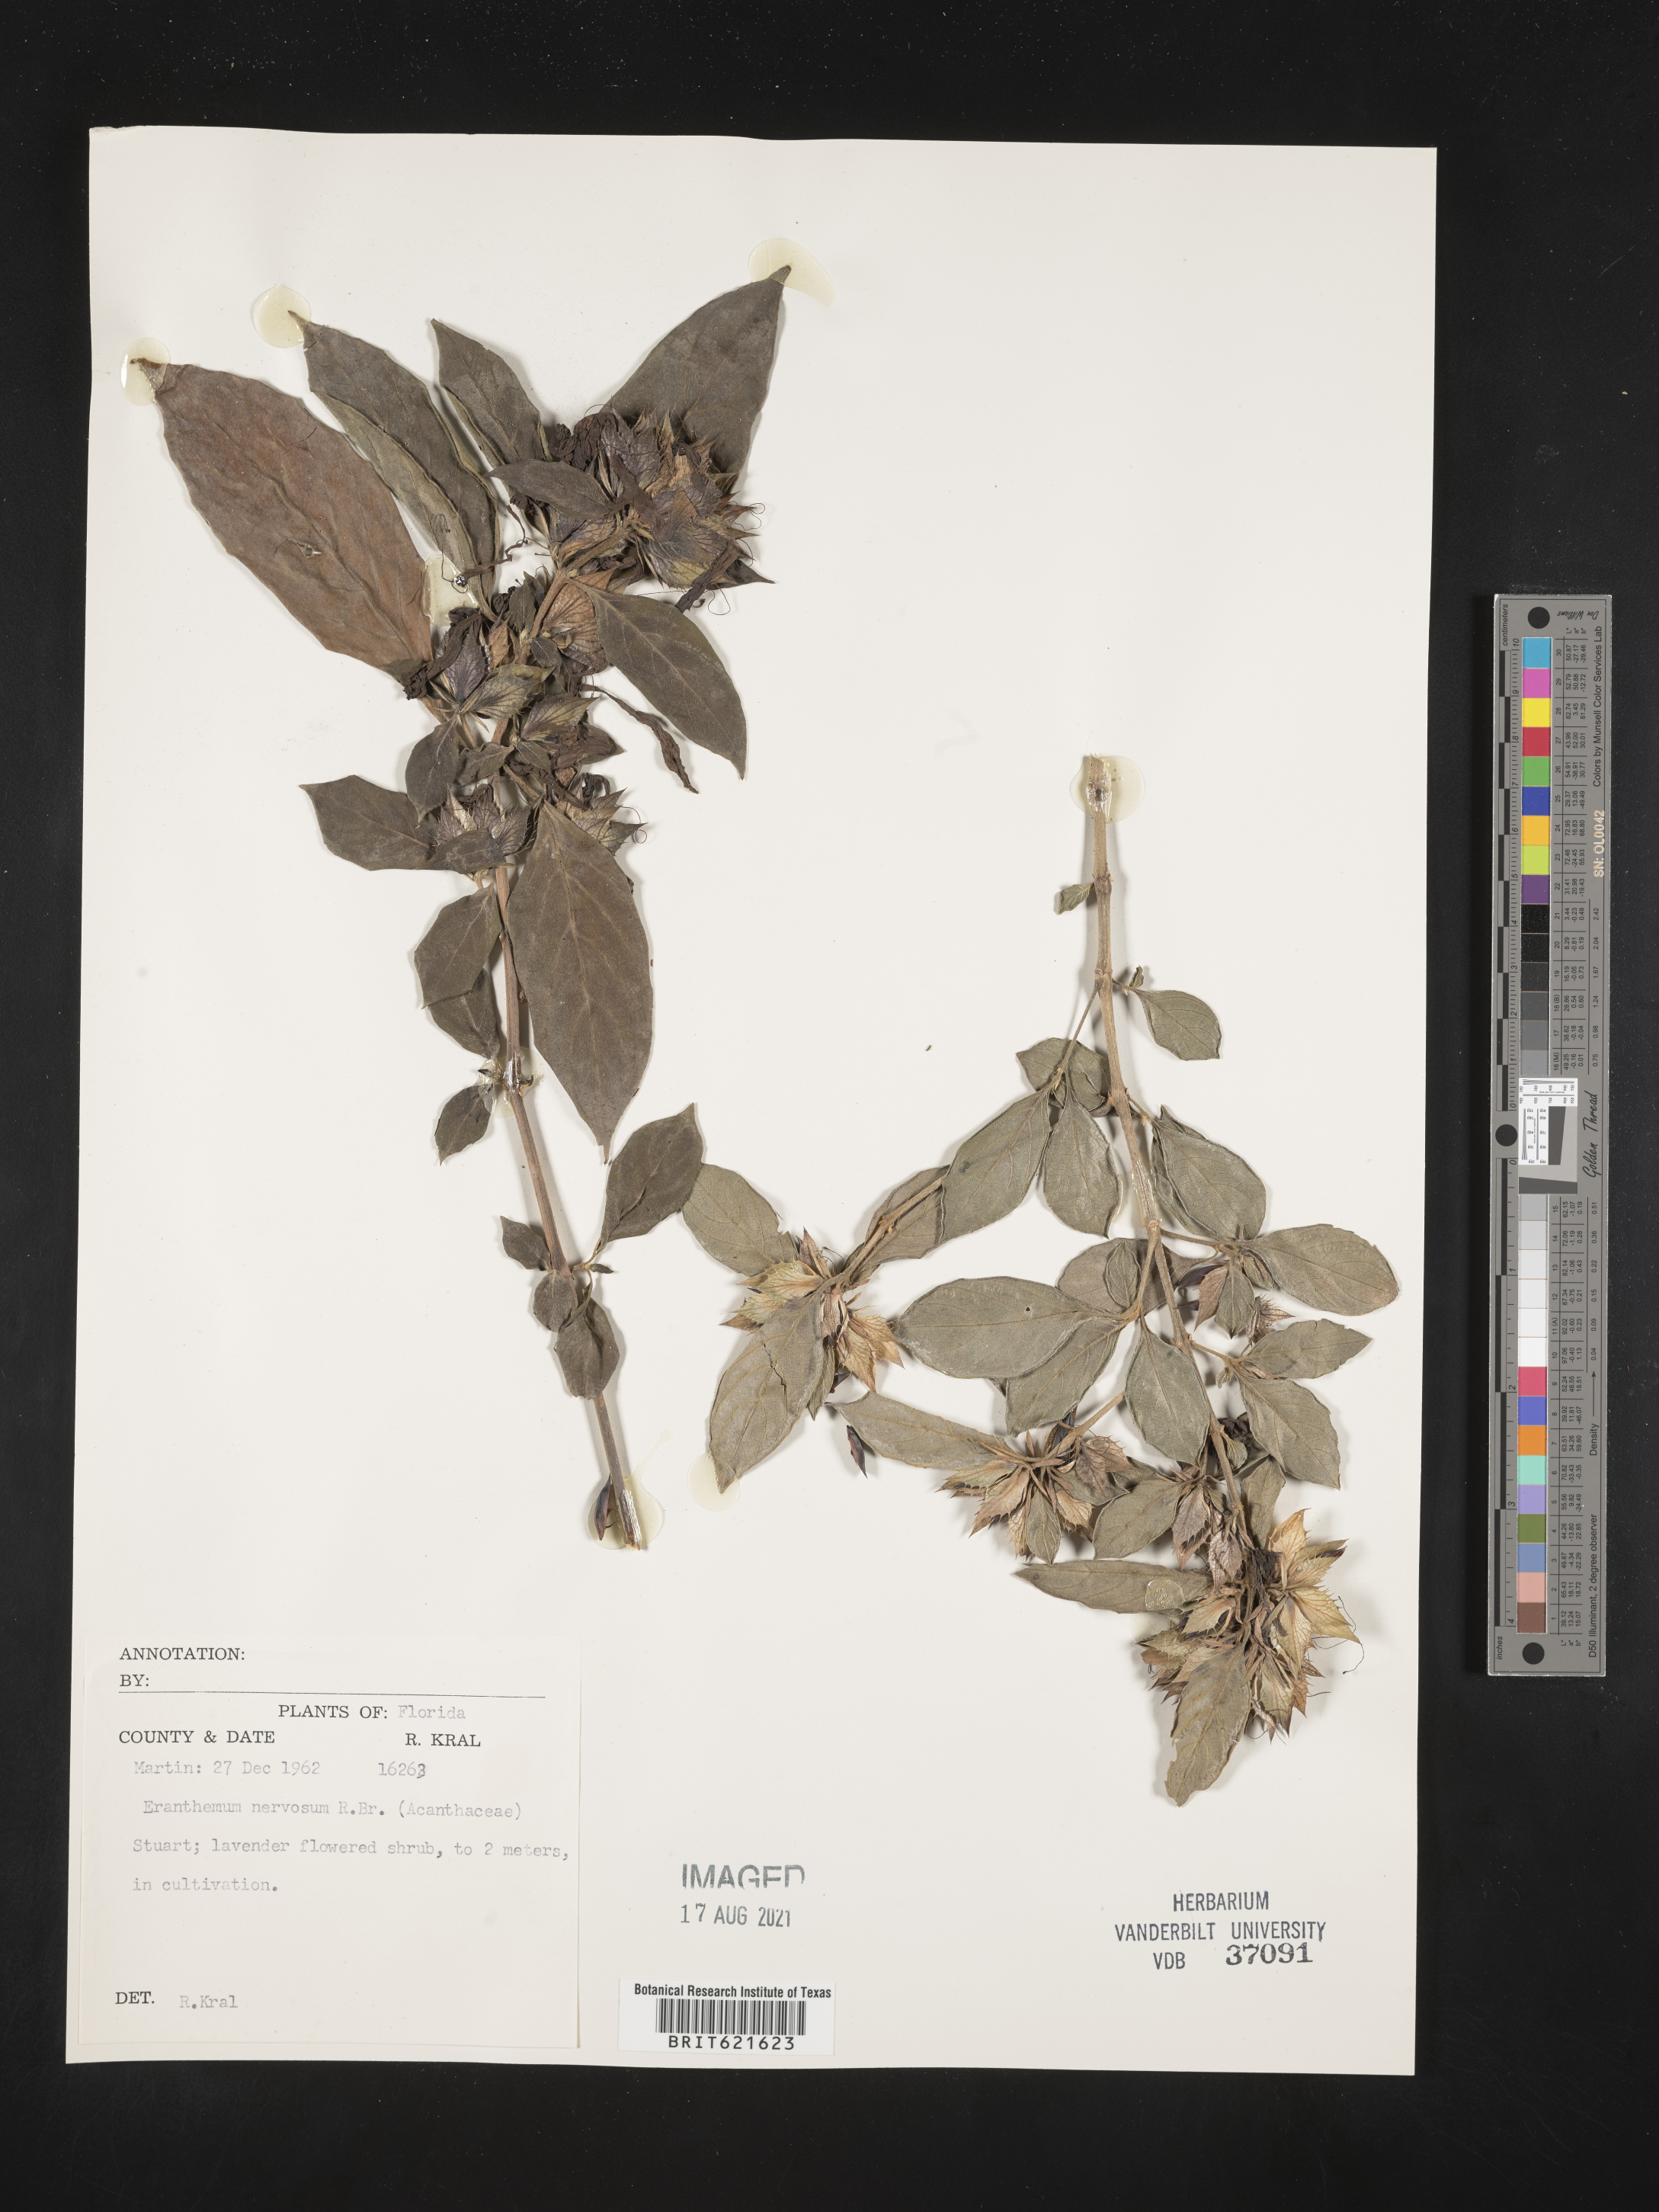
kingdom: Plantae
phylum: Tracheophyta
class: Magnoliopsida
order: Lamiales
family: Acanthaceae
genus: Eranthemum
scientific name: Eranthemum pulchellum
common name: Blue-sage
